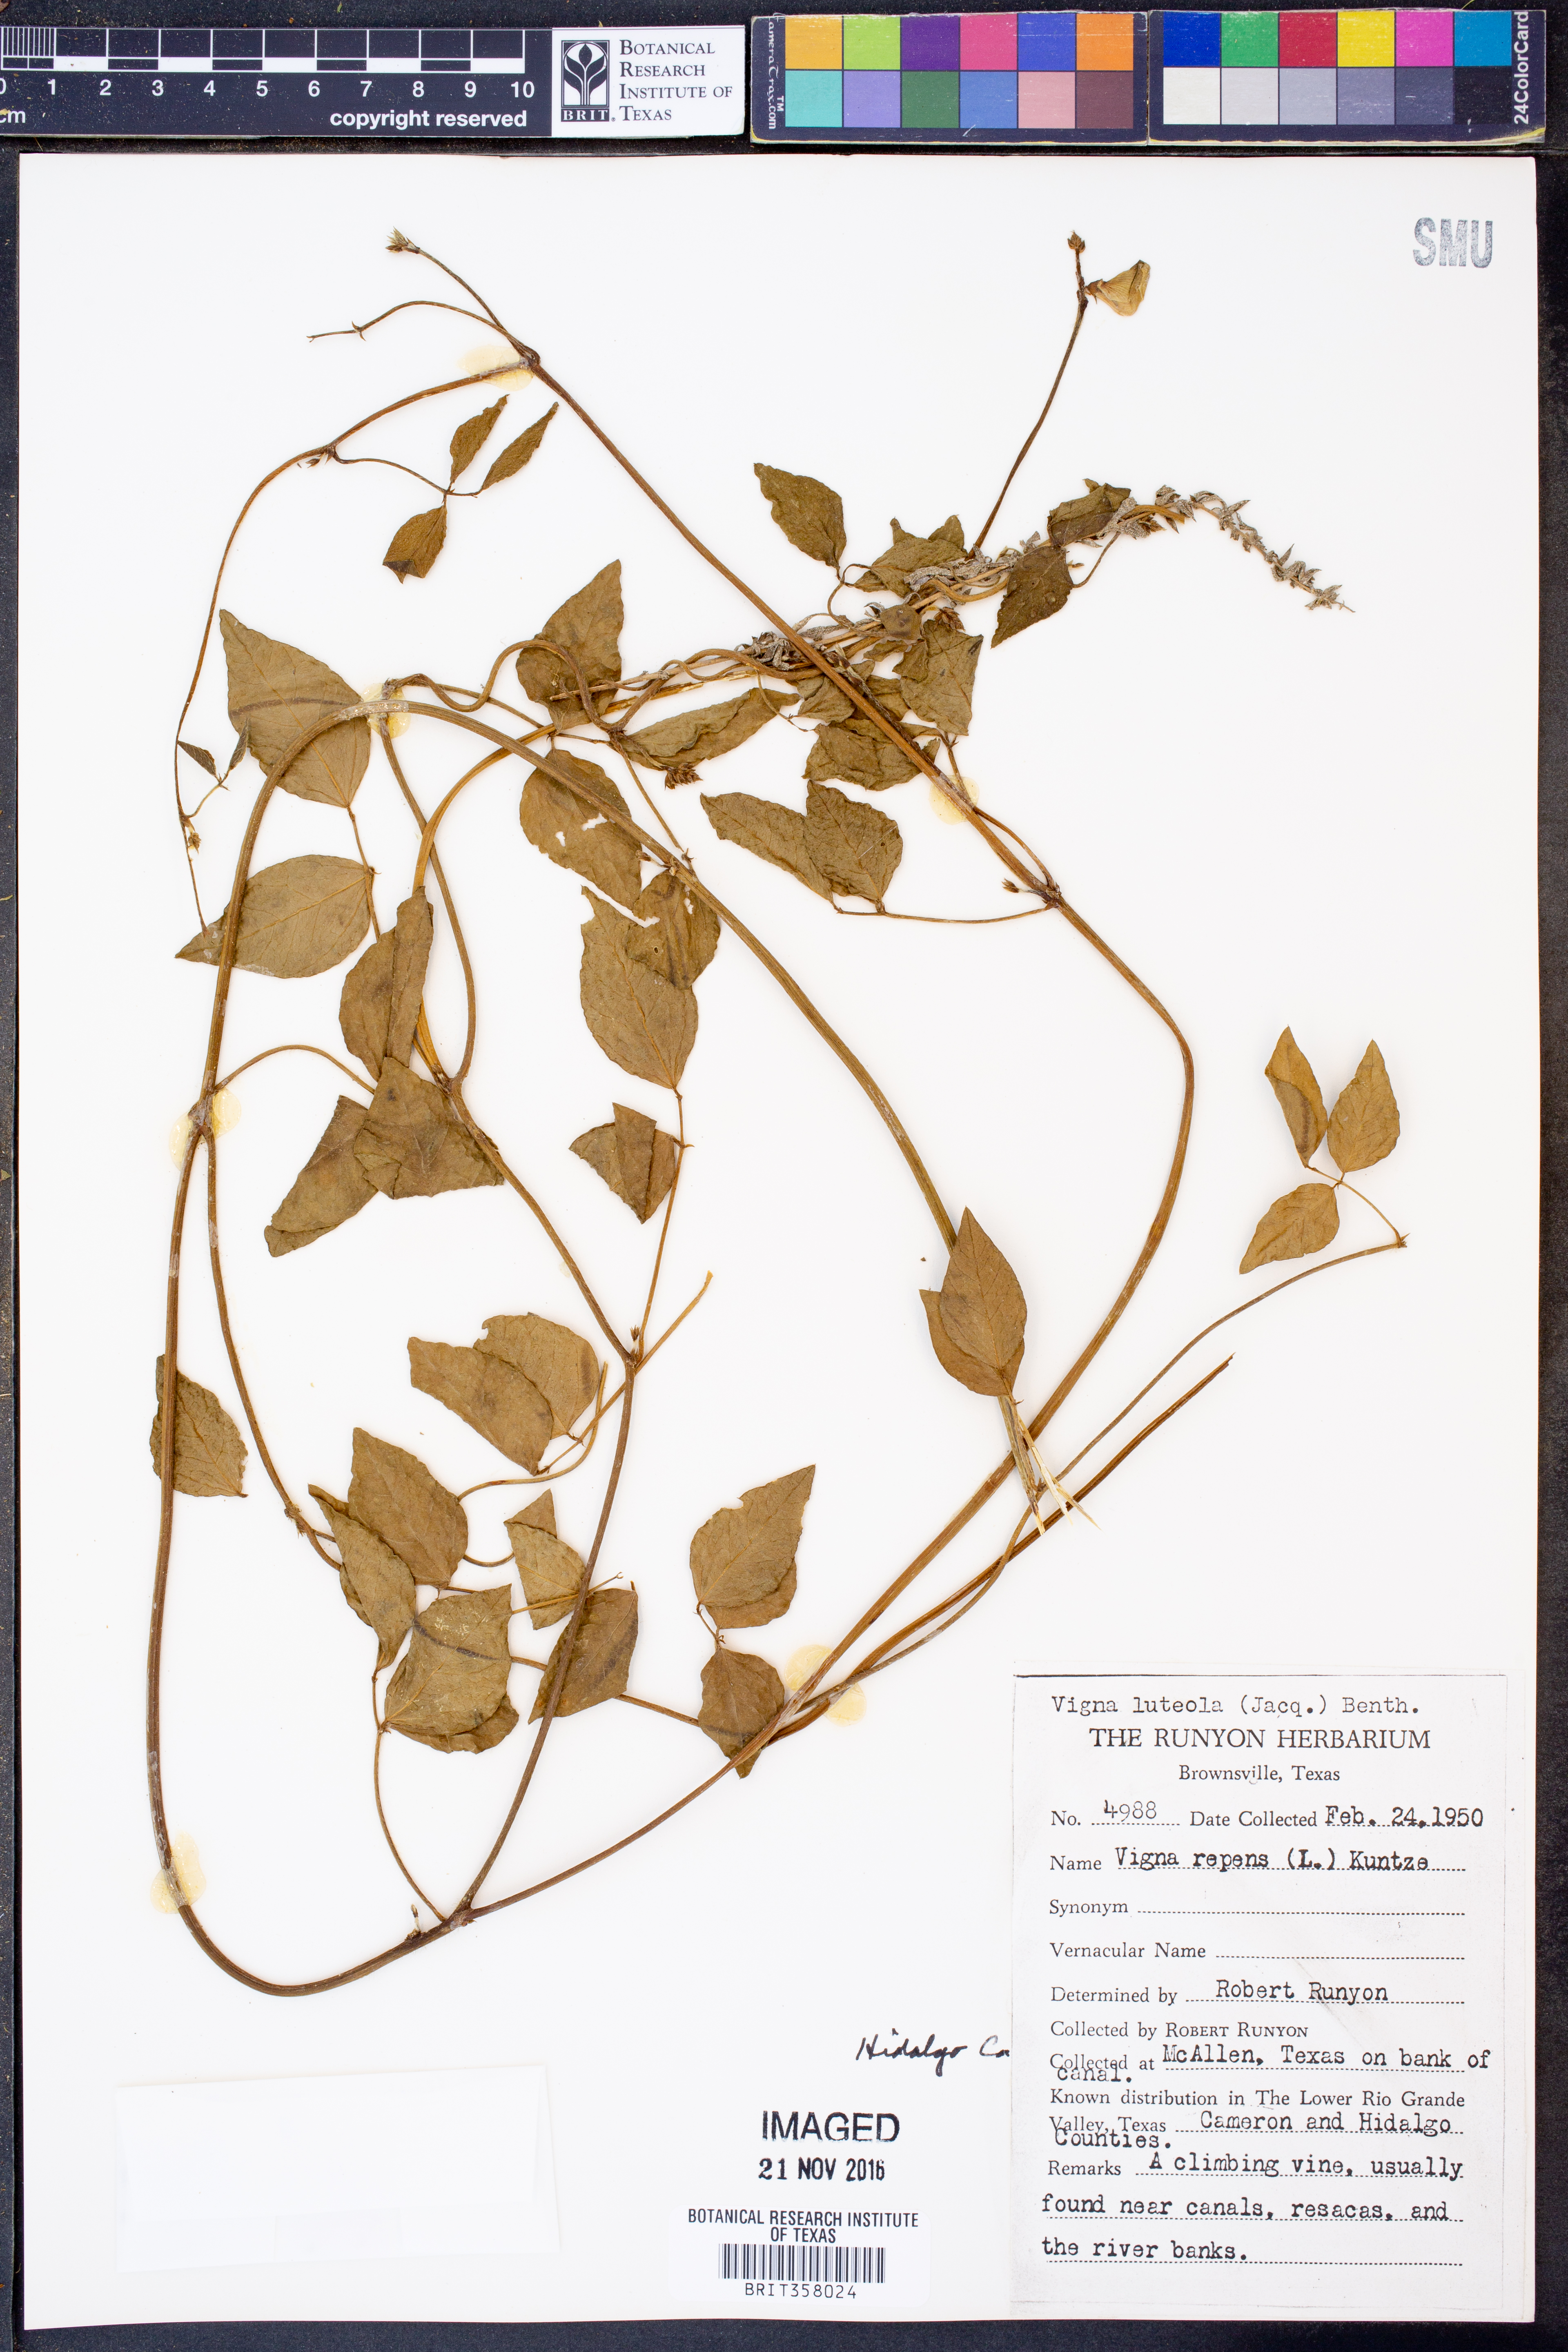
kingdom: Plantae
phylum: Tracheophyta
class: Magnoliopsida
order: Fabales
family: Fabaceae
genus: Vigna
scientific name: Vigna luteola
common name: Hairypod cowpea
